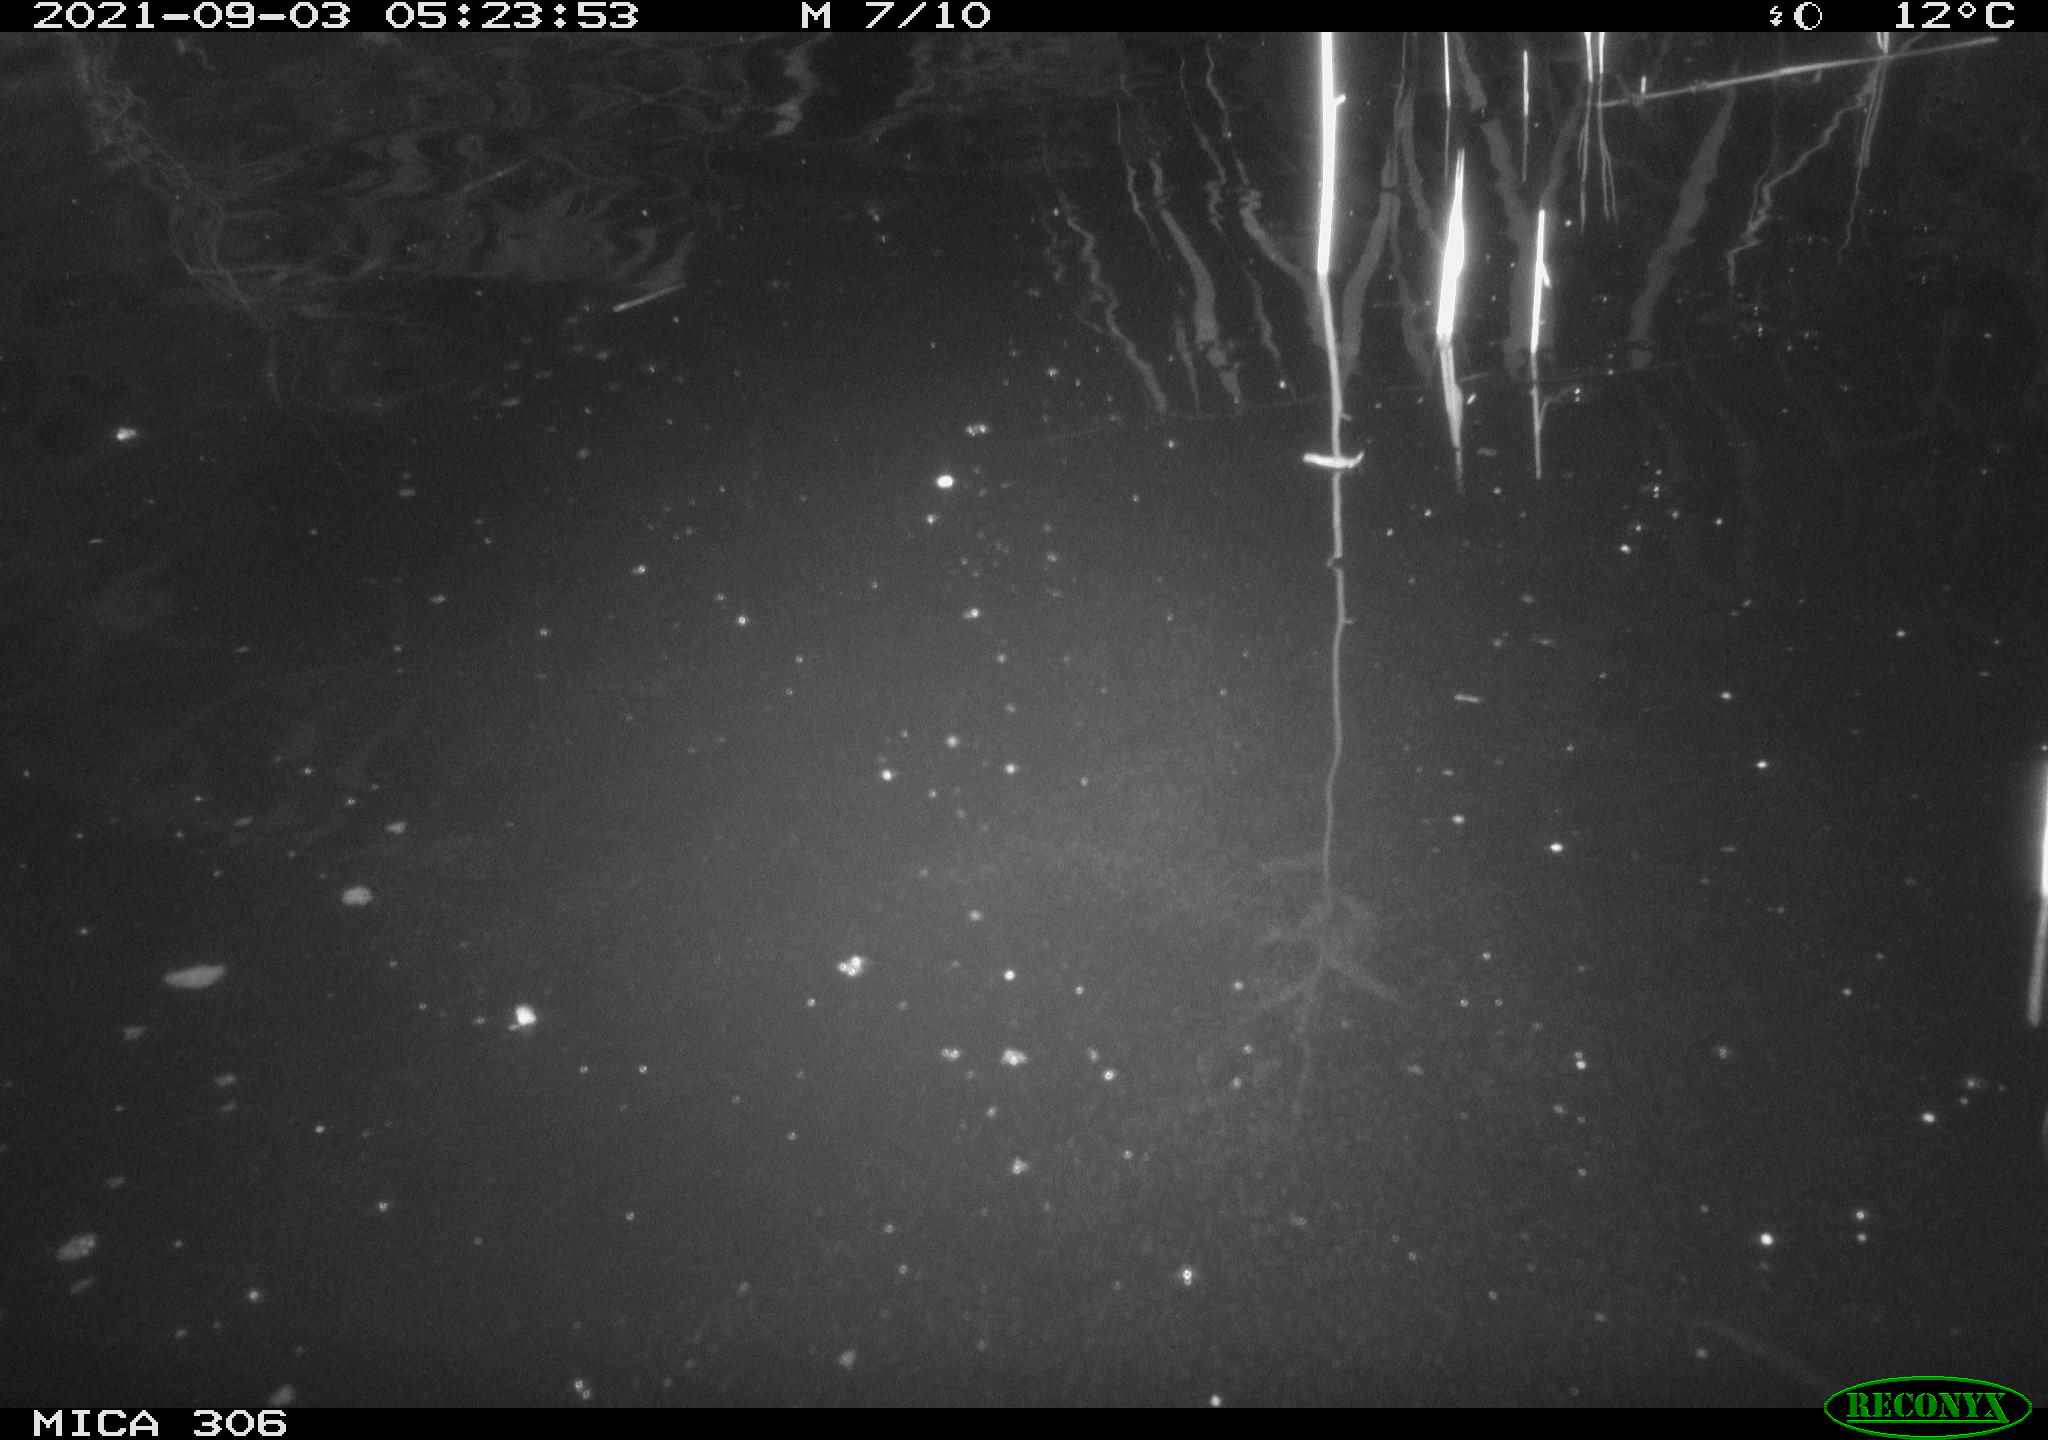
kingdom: Animalia
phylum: Chordata
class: Mammalia
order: Rodentia
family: Cricetidae
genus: Ondatra
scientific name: Ondatra zibethicus
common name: Muskrat
